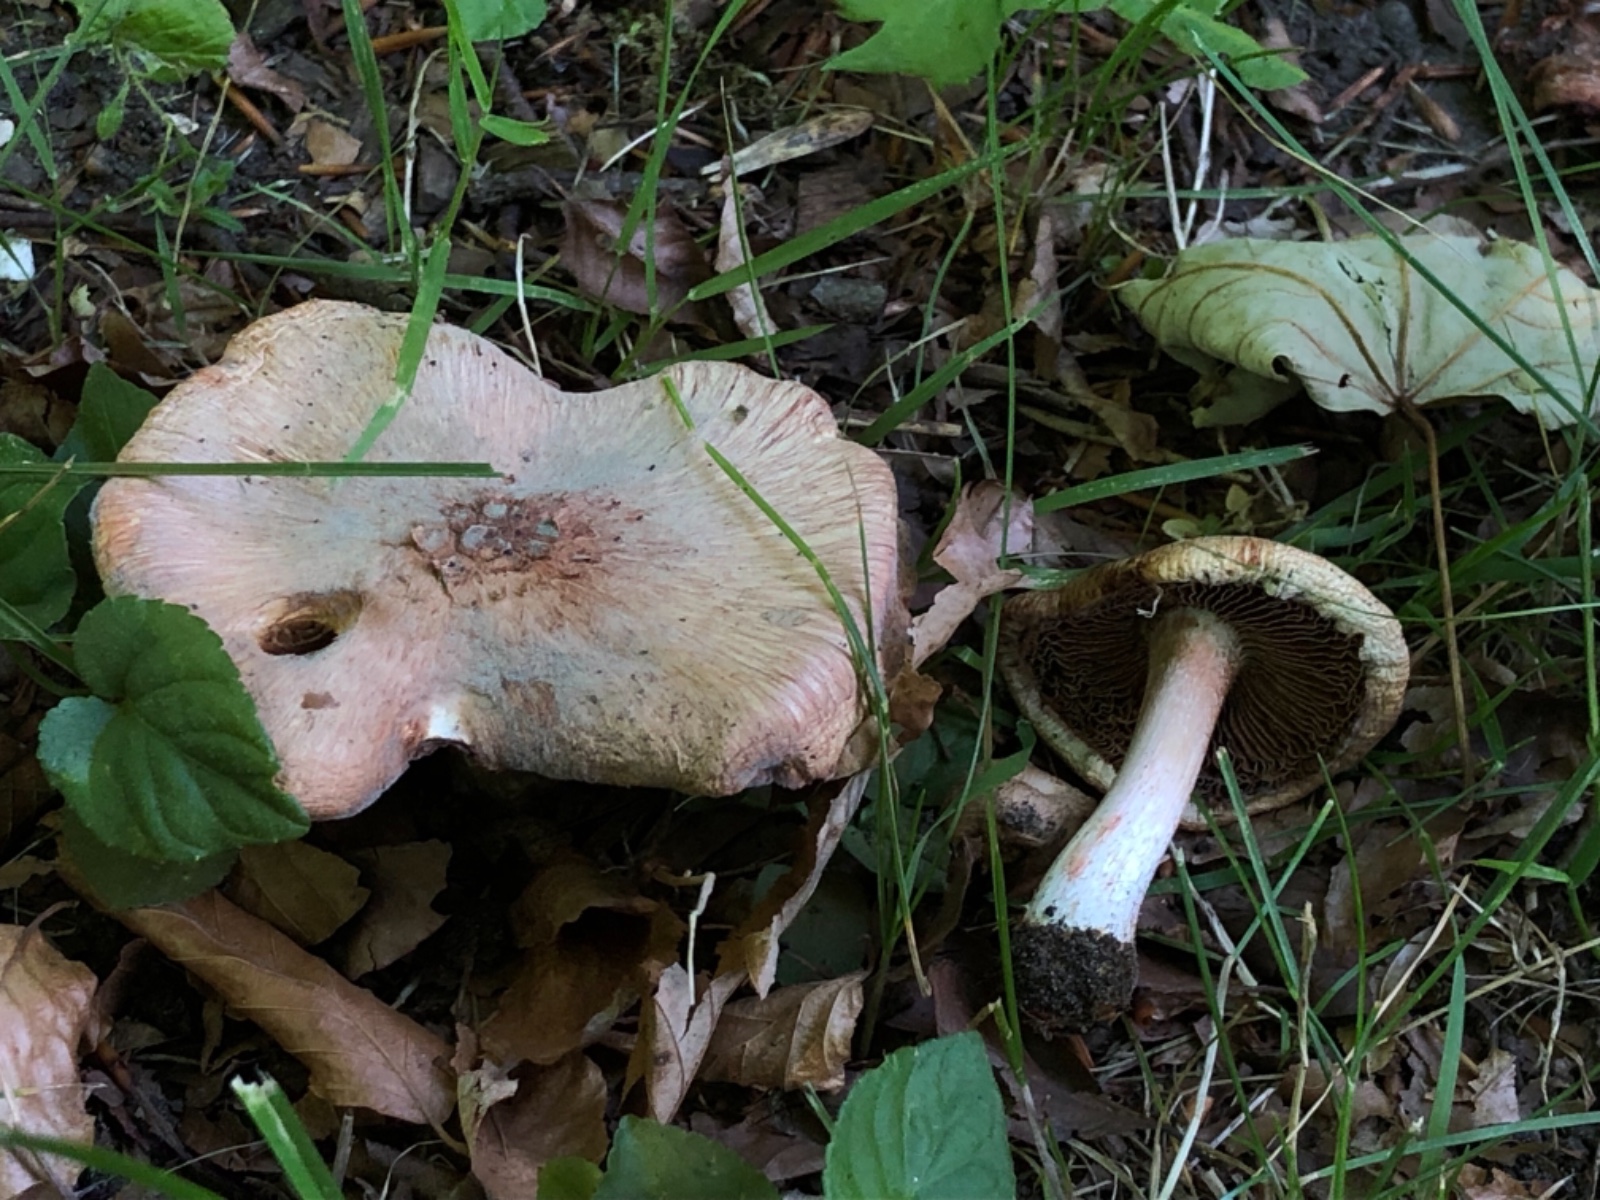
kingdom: Fungi
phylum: Basidiomycota
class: Agaricomycetes
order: Agaricales
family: Inocybaceae
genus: Inosperma
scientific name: Inosperma erubescens
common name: giftig trævlhat
